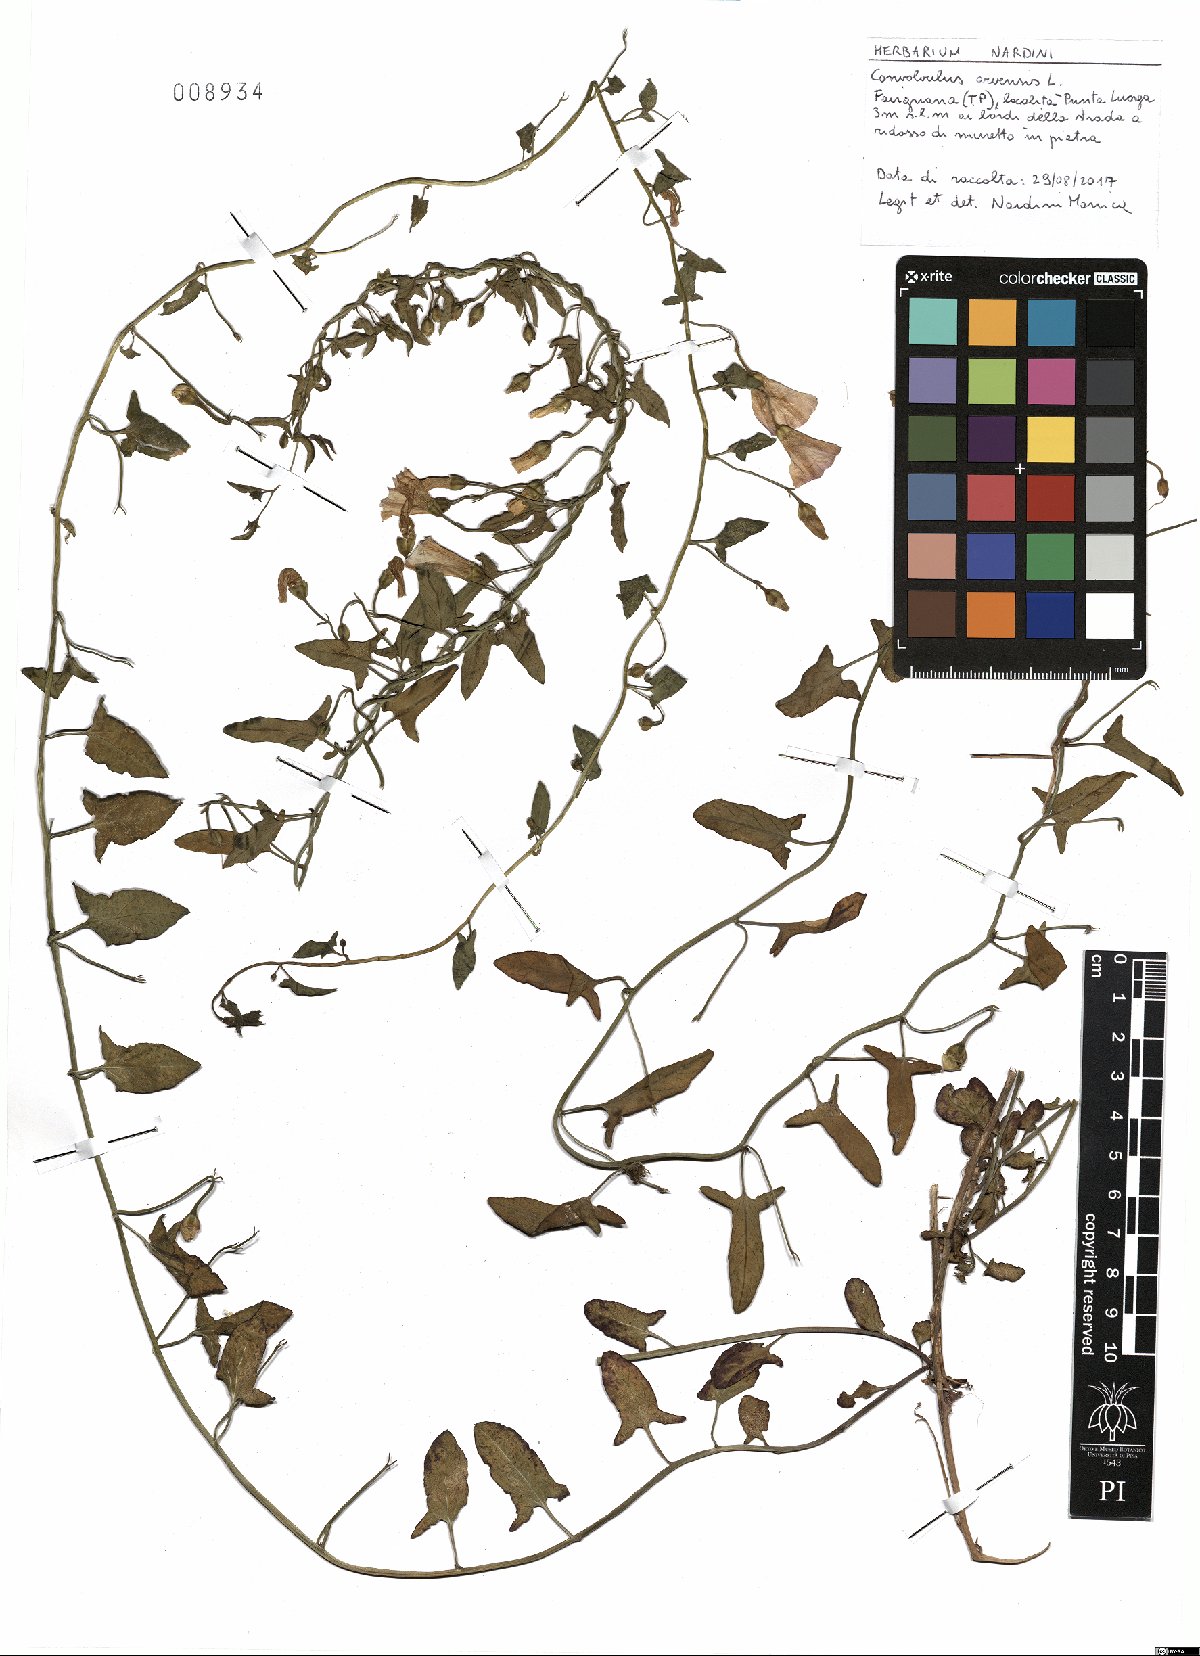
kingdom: Plantae
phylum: Tracheophyta
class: Magnoliopsida
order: Solanales
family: Convolvulaceae
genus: Convolvulus
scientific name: Convolvulus arvensis
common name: Field bindweed
